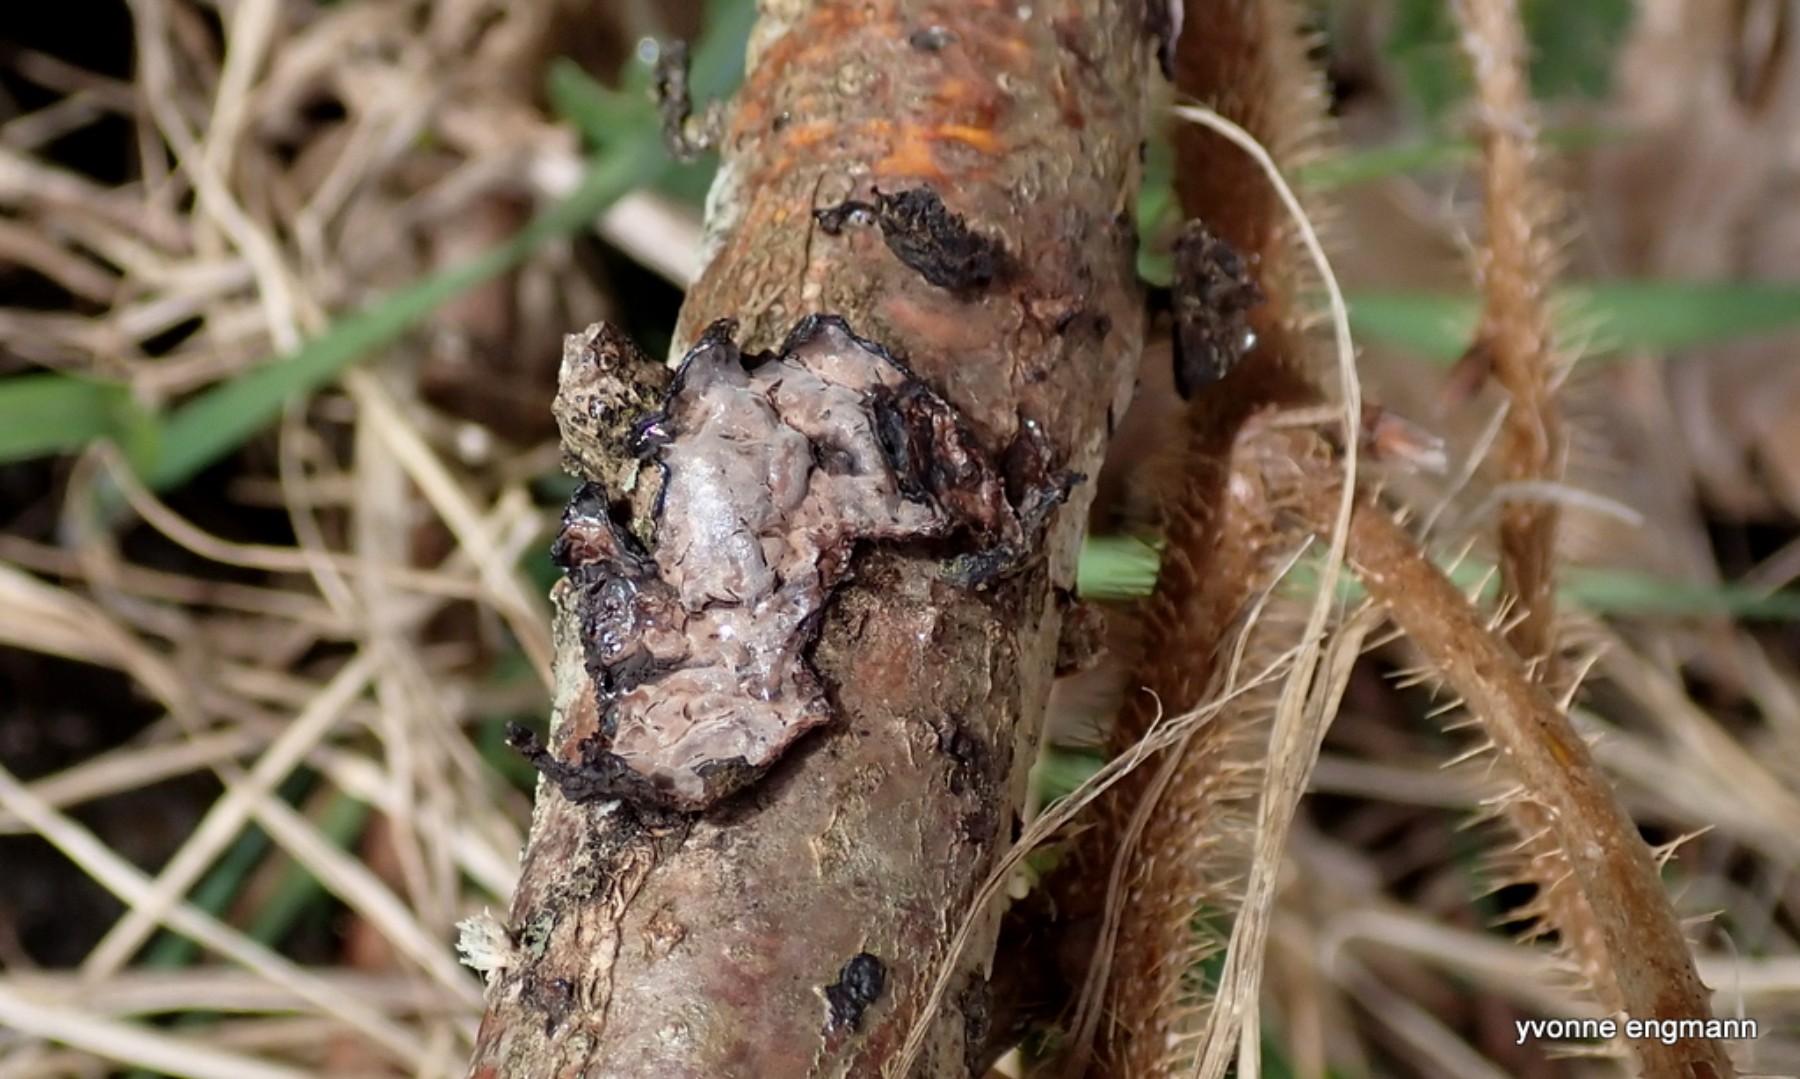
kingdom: Fungi
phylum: Basidiomycota
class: Agaricomycetes
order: Russulales
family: Peniophoraceae
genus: Peniophora
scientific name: Peniophora quercina
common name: ege-voksskind
